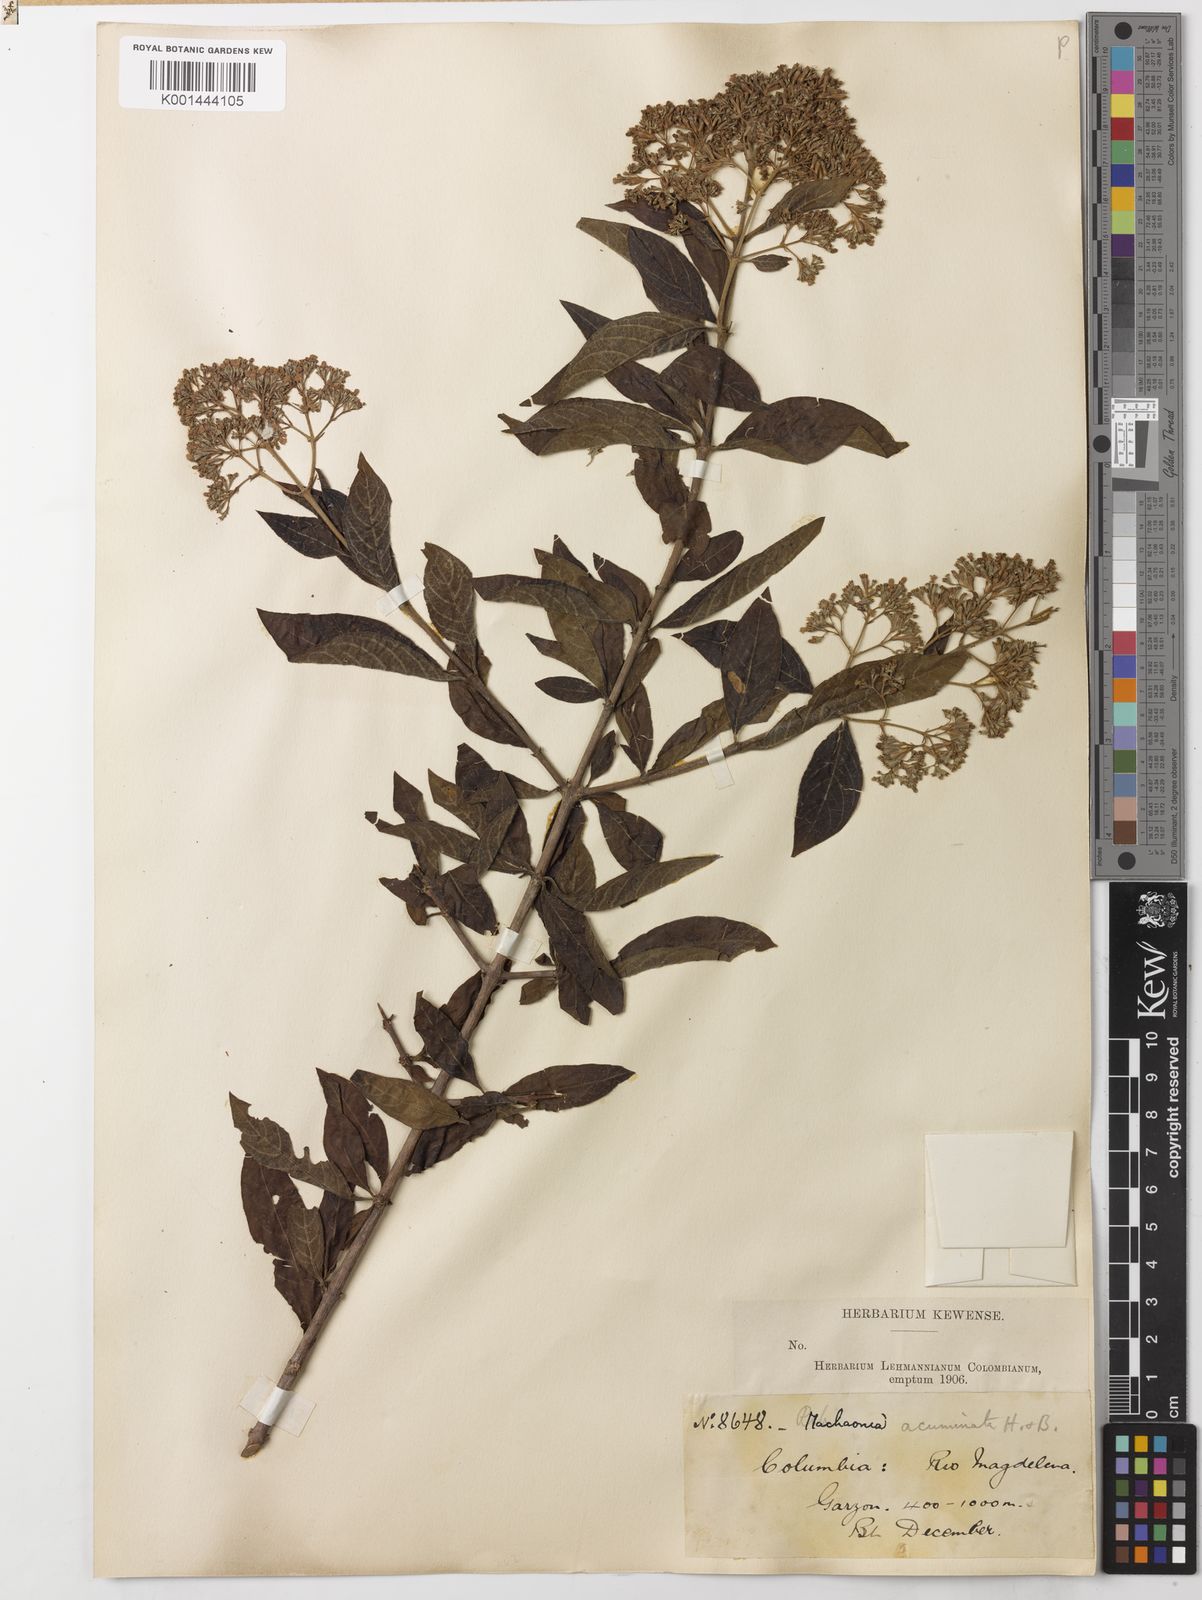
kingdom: Plantae
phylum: Tracheophyta
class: Magnoliopsida
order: Gentianales
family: Rubiaceae
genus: Machaonia
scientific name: Machaonia acuminata
